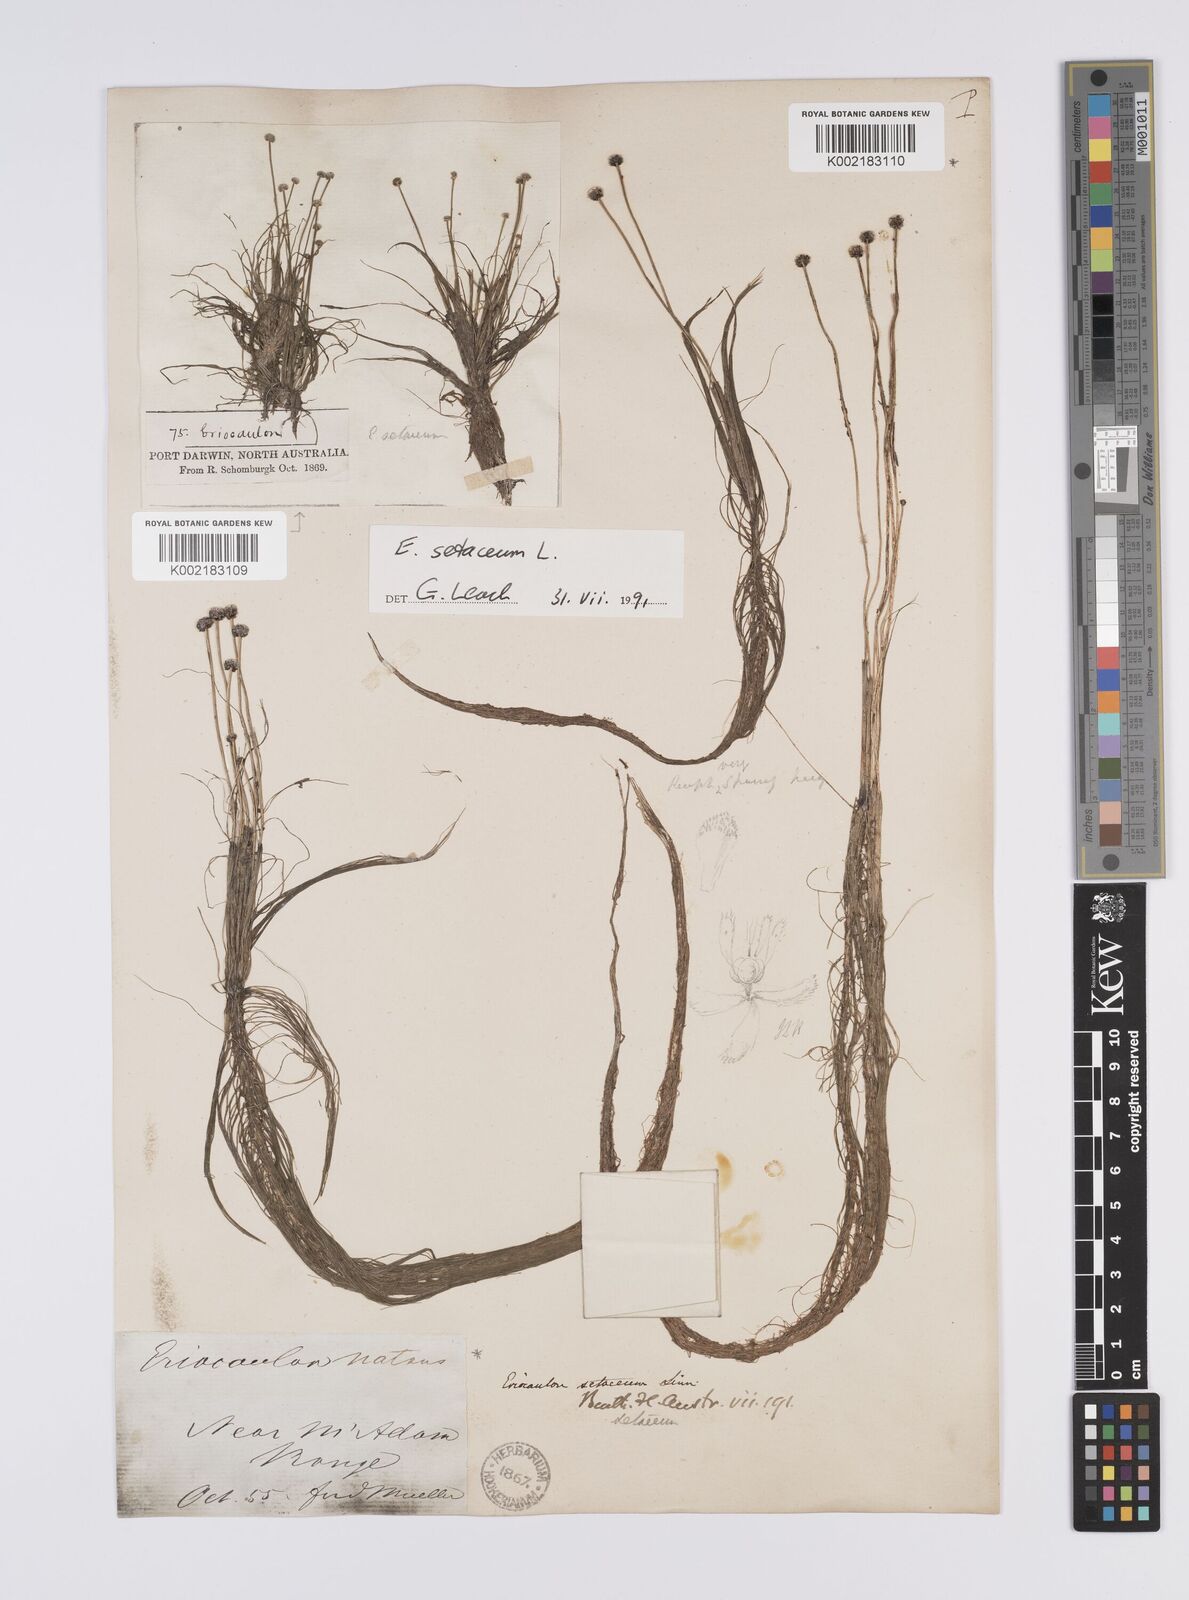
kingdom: Plantae
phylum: Tracheophyta
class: Liliopsida
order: Poales
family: Eriocaulaceae
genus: Eriocaulon
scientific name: Eriocaulon setaceum
